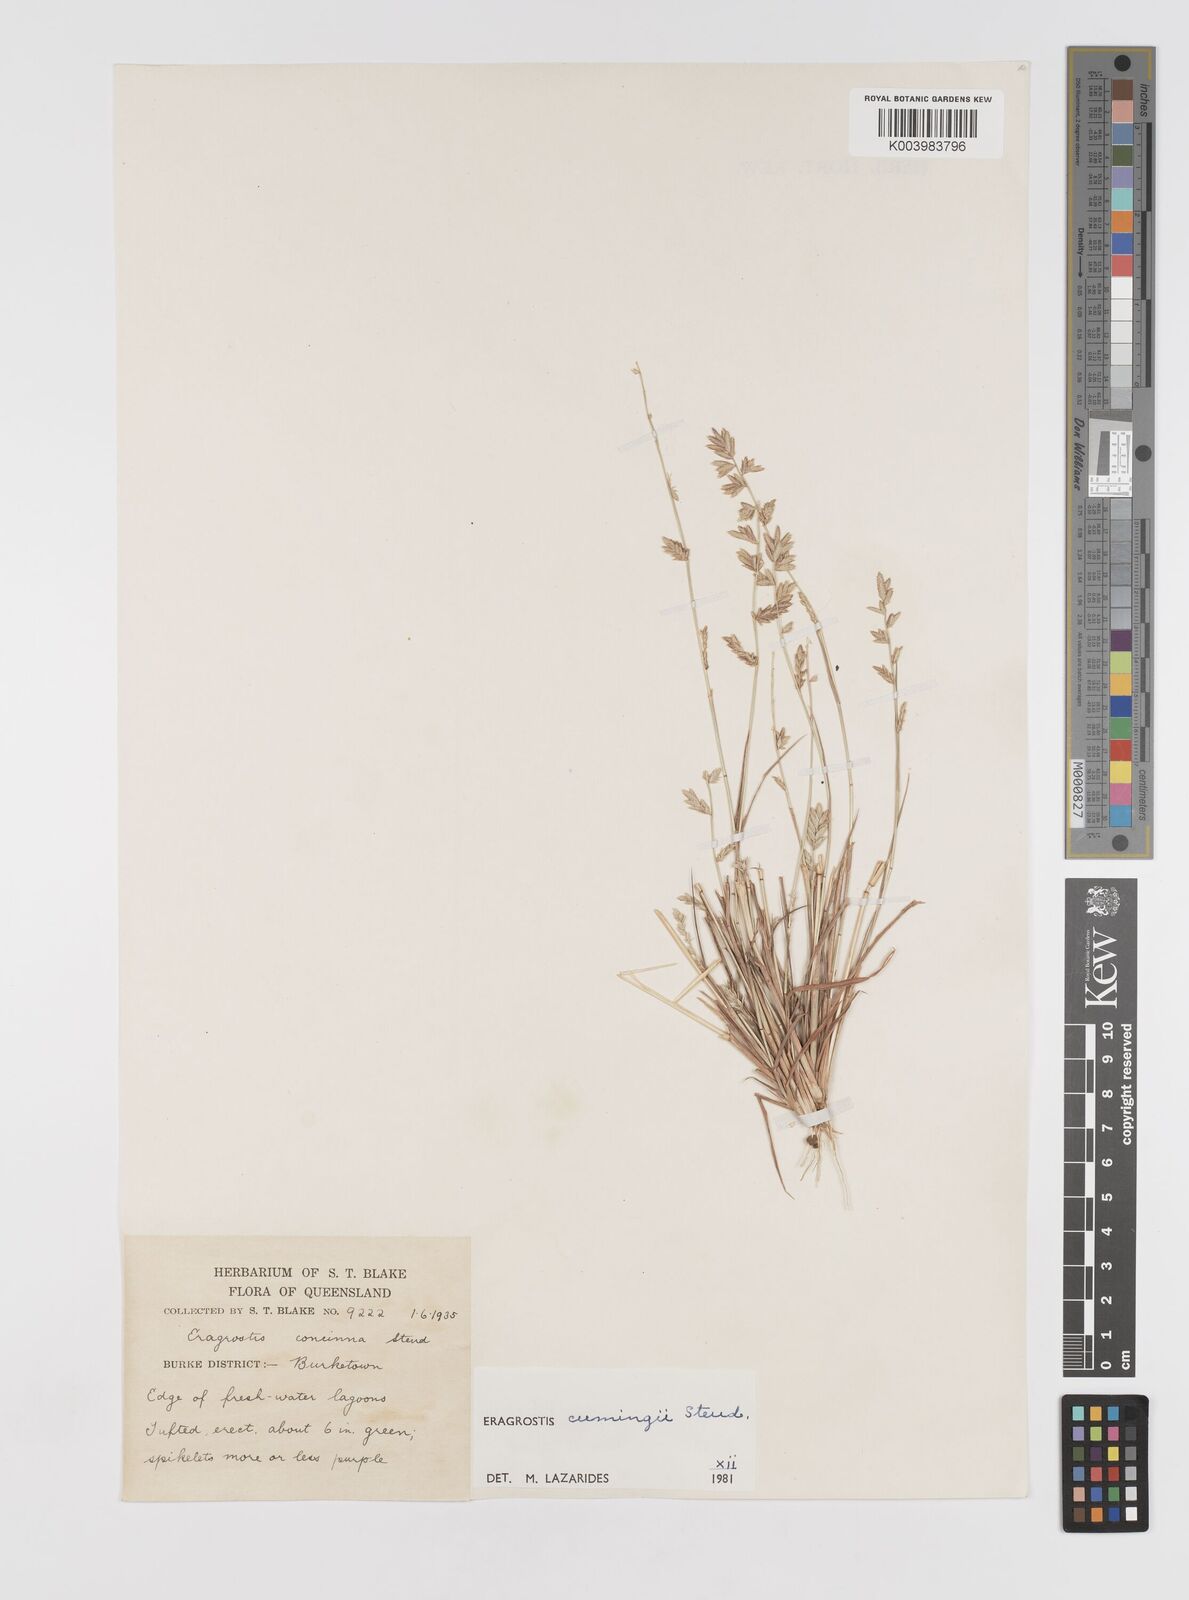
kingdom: Plantae
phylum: Tracheophyta
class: Liliopsida
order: Poales
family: Poaceae
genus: Eragrostis
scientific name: Eragrostis cumingii
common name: Cuming's lovegrass
